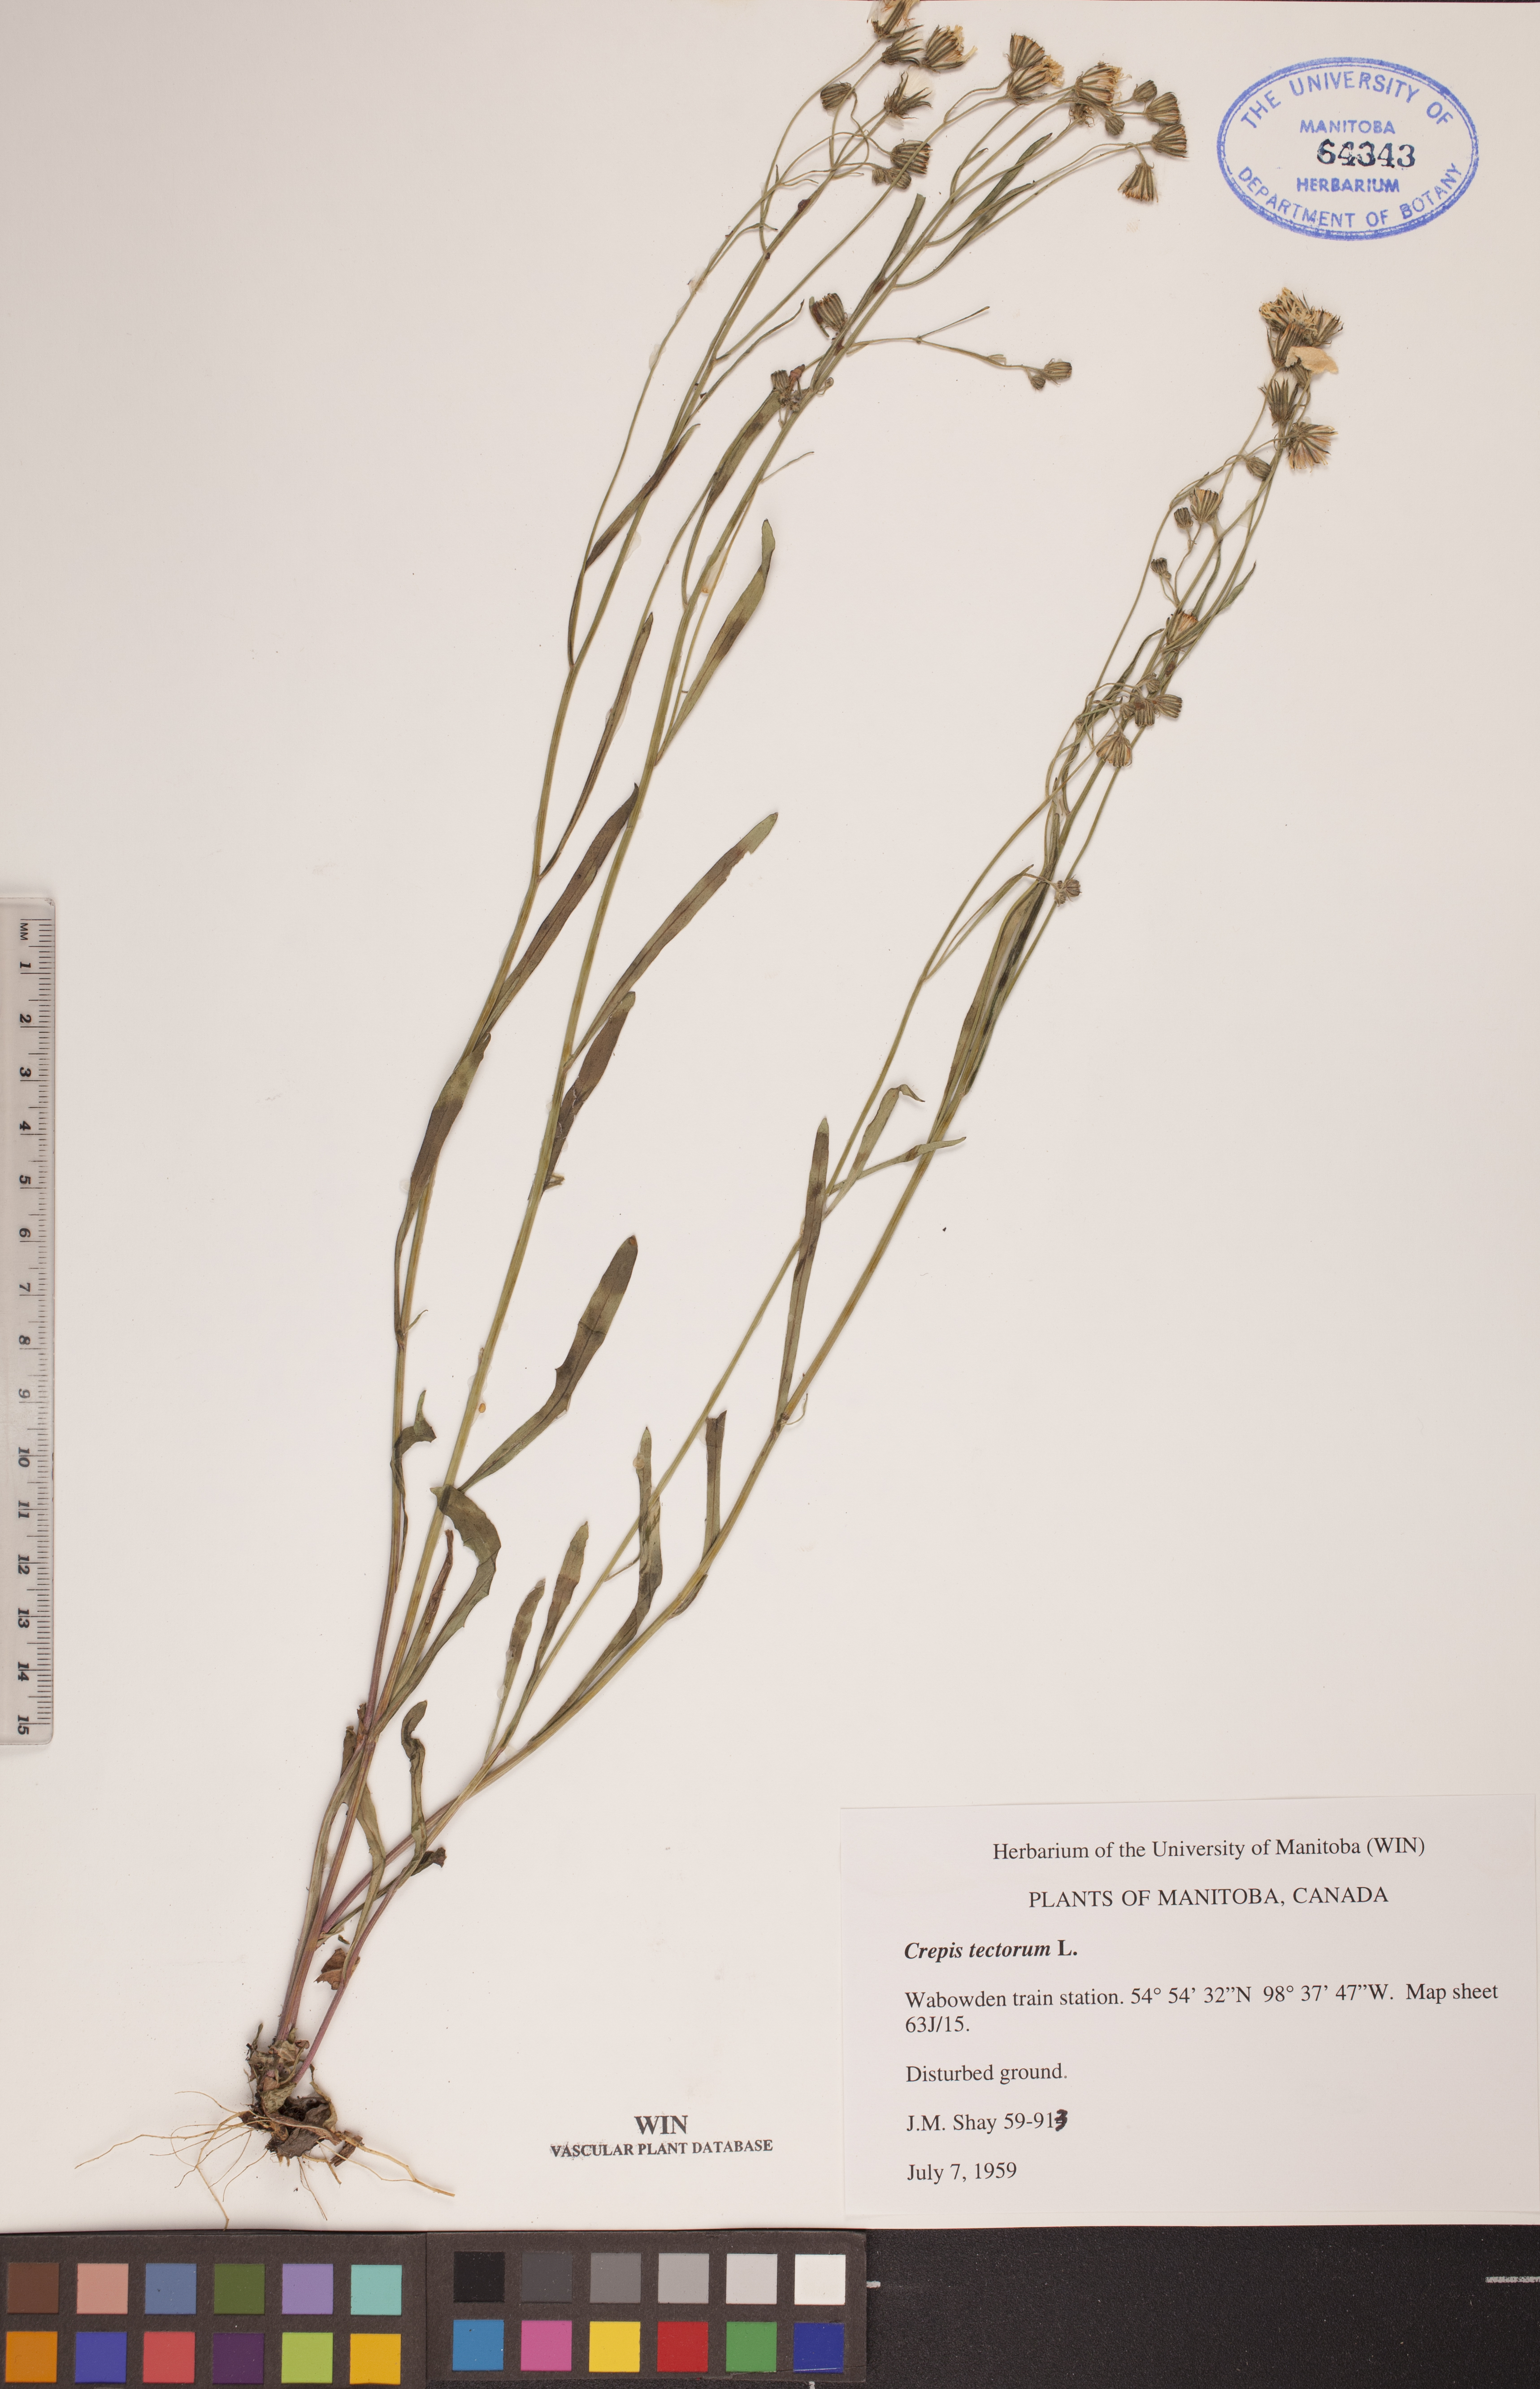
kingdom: Plantae
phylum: Tracheophyta
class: Magnoliopsida
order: Asterales
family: Asteraceae
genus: Crepis
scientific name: Crepis tectorum
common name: Narrow-leaved hawk's-beard
